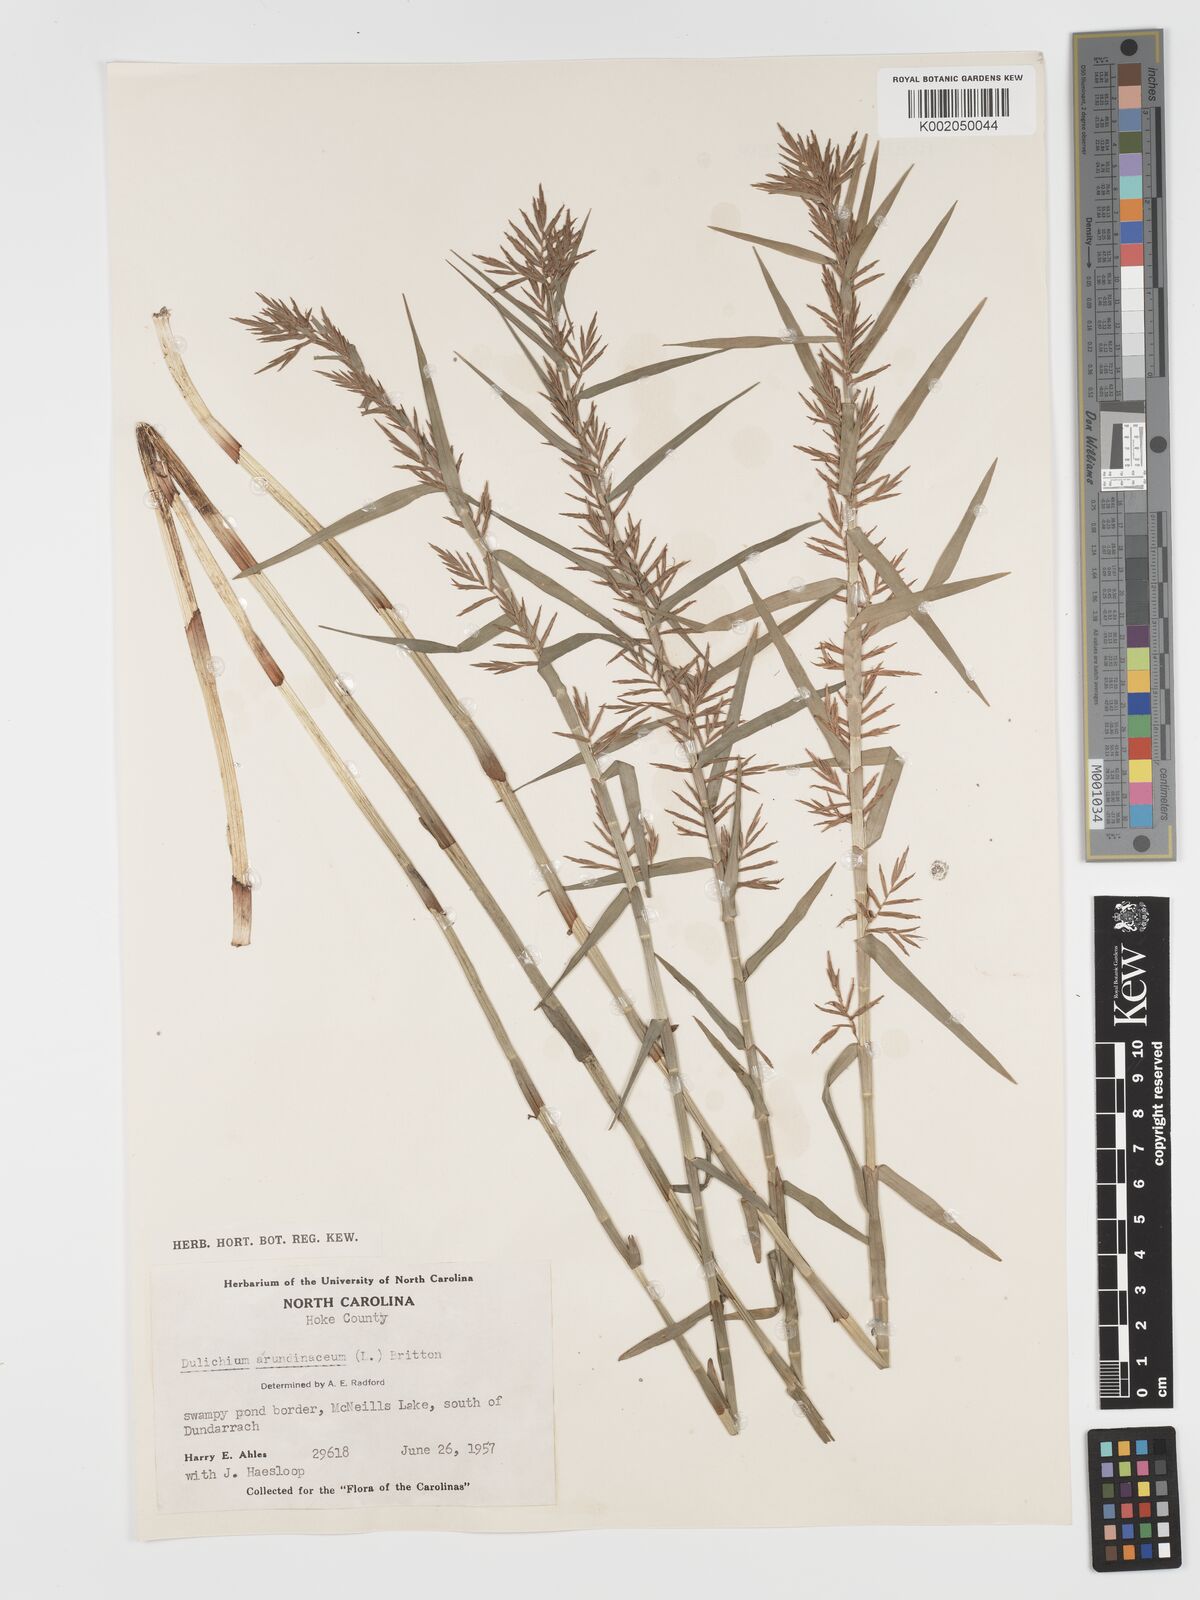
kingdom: Plantae
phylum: Tracheophyta
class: Liliopsida
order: Poales
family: Cyperaceae
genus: Dulichium
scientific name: Dulichium arundinaceum
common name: Three-way sedge
